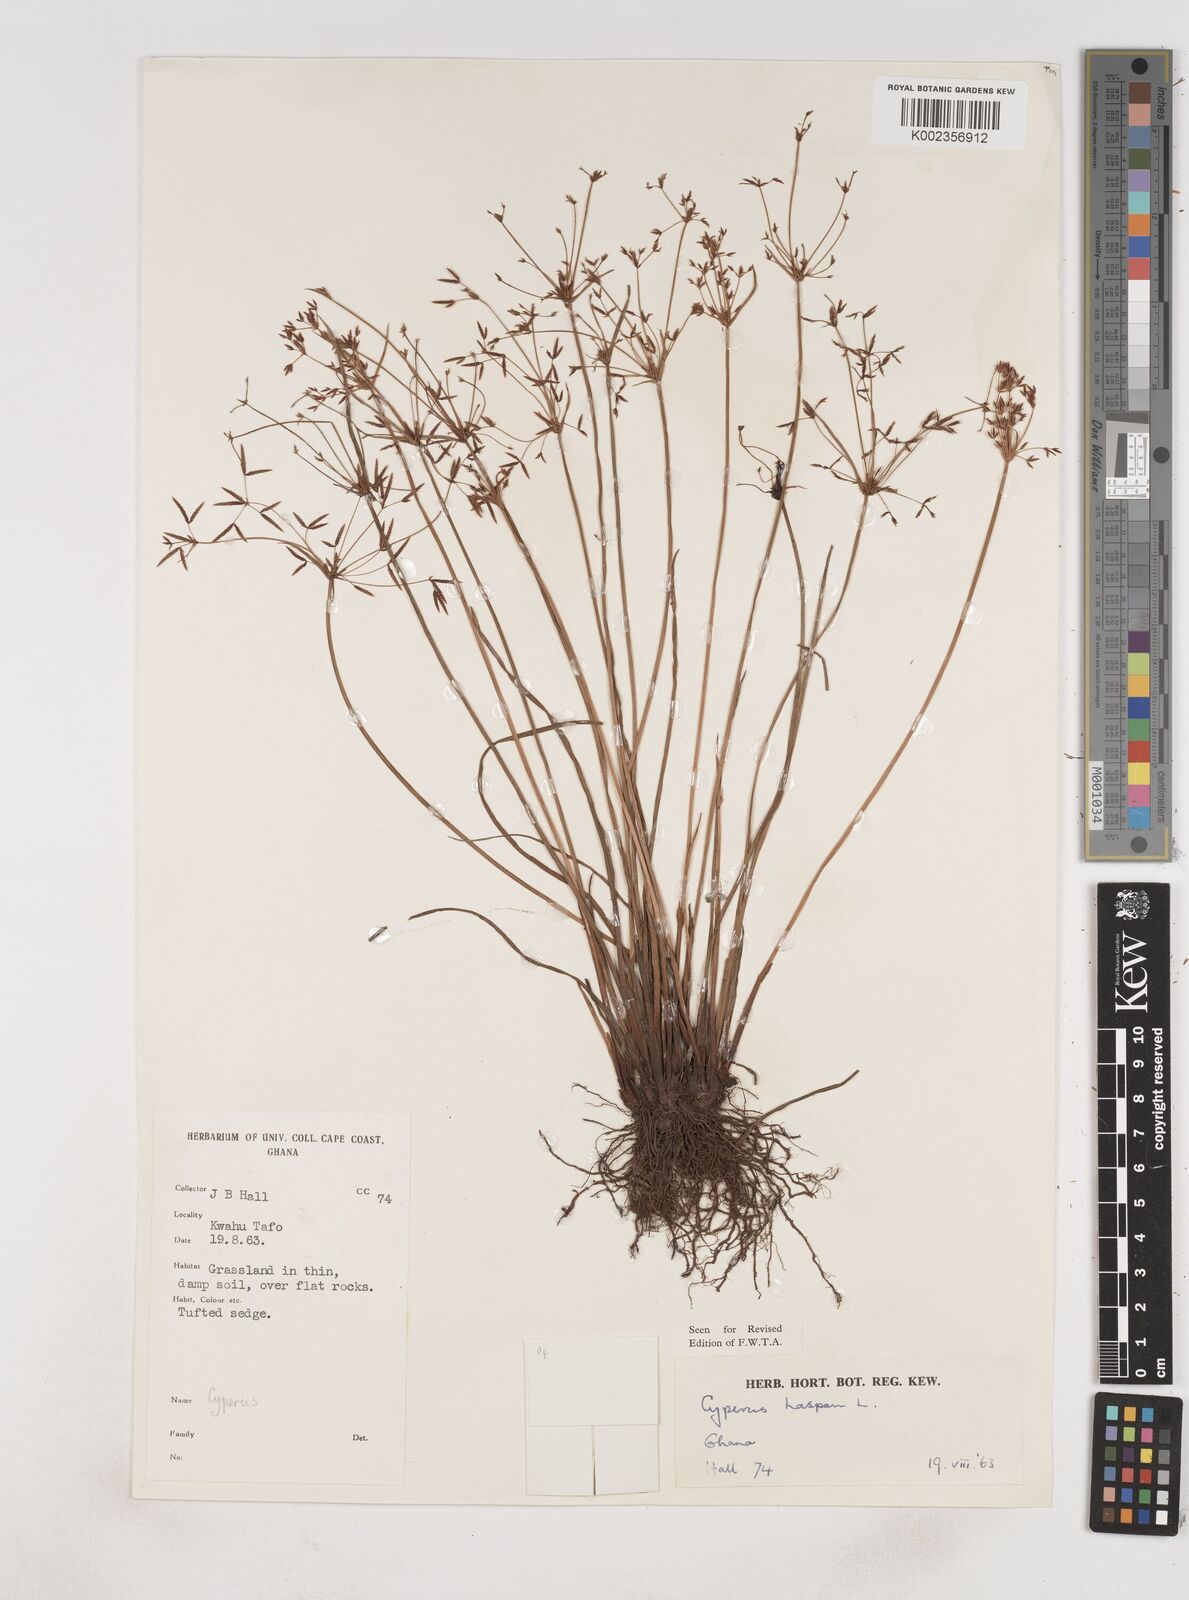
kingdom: Plantae
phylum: Tracheophyta
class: Liliopsida
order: Poales
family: Cyperaceae
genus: Cyperus
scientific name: Cyperus haspan
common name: Haspan flatsedge
